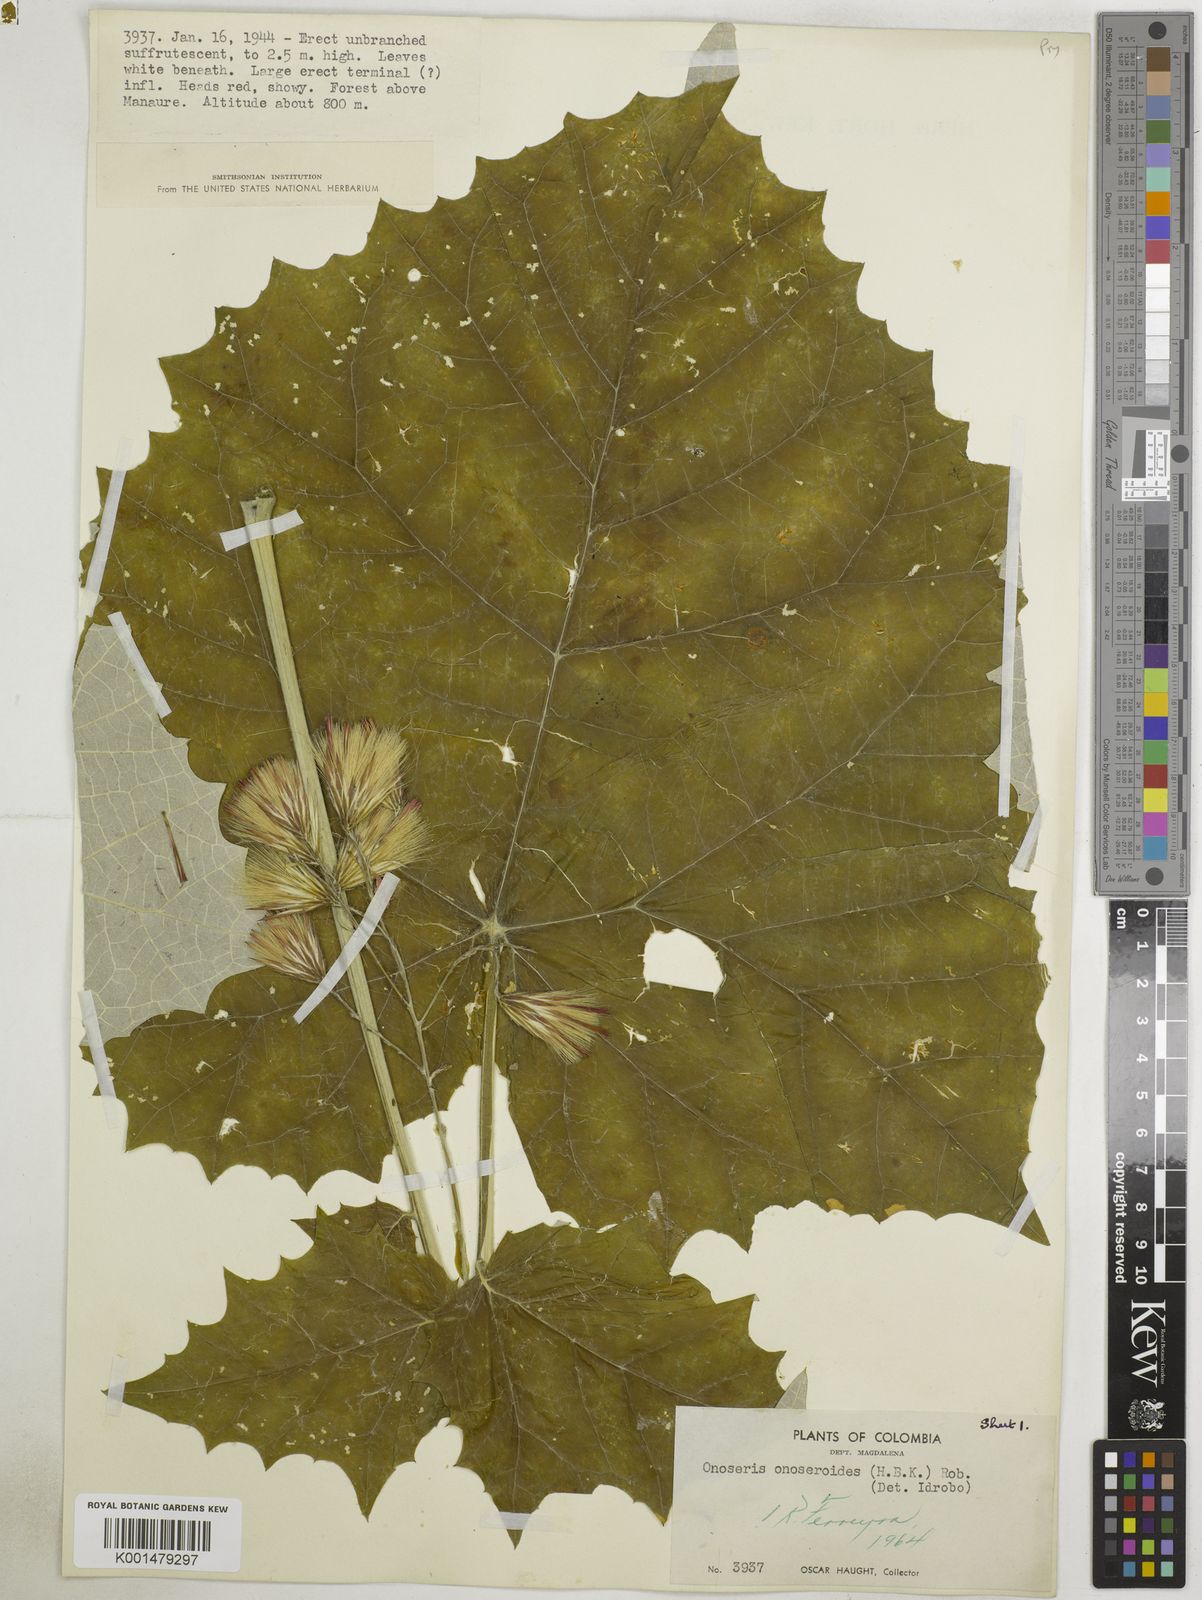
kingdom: Plantae
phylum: Tracheophyta
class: Magnoliopsida
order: Asterales
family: Asteraceae
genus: Onoseris
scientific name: Onoseris onoseroides
